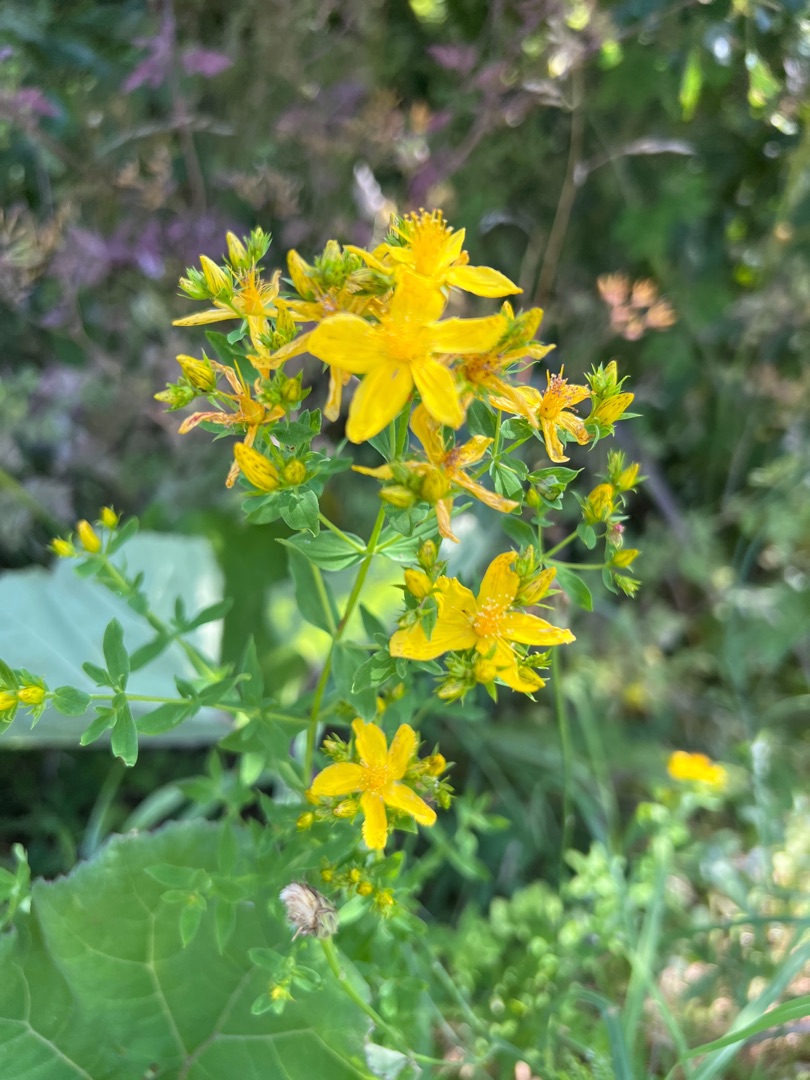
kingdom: Plantae
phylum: Tracheophyta
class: Magnoliopsida
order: Malpighiales
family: Hypericaceae
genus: Hypericum
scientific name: Hypericum perforatum
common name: Prikbladet perikon
